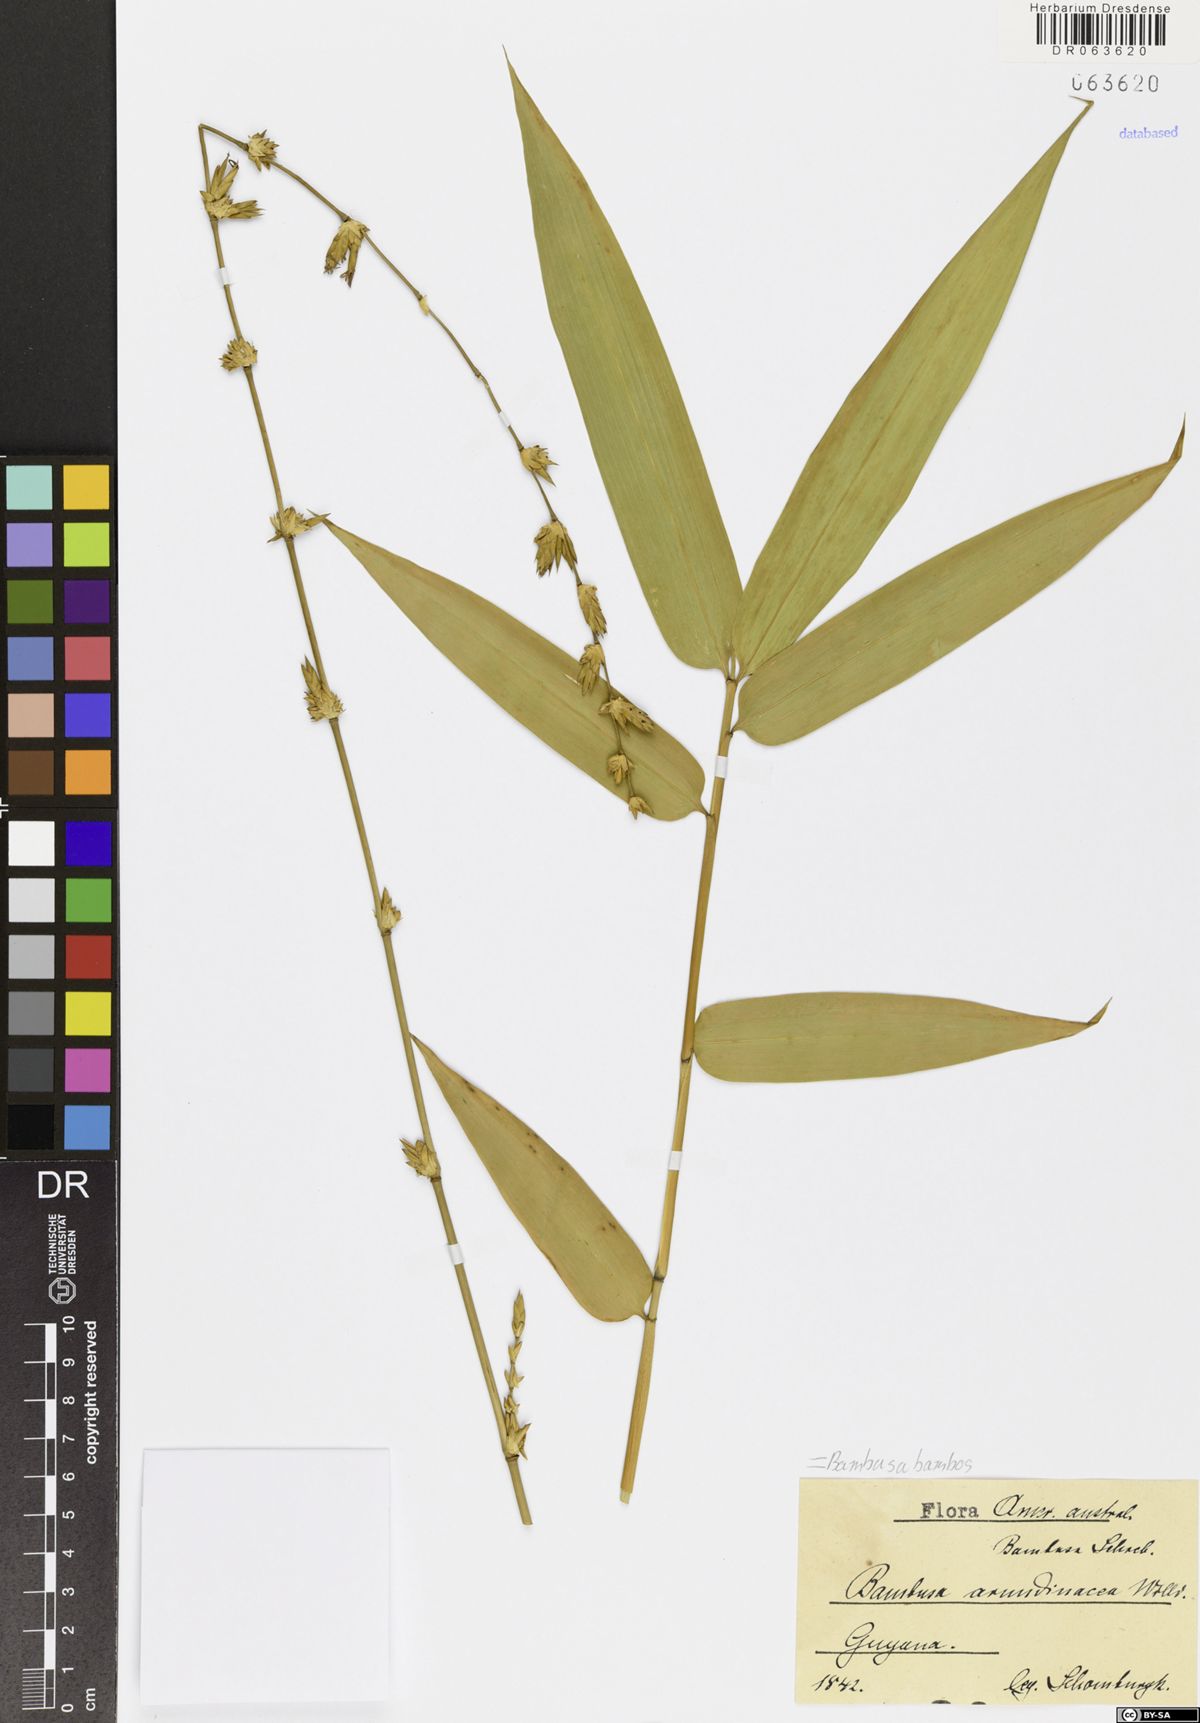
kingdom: Plantae
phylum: Tracheophyta
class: Liliopsida
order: Poales
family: Poaceae
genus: Bambusa
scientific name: Bambusa bambos
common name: Indian thorny bamboo
